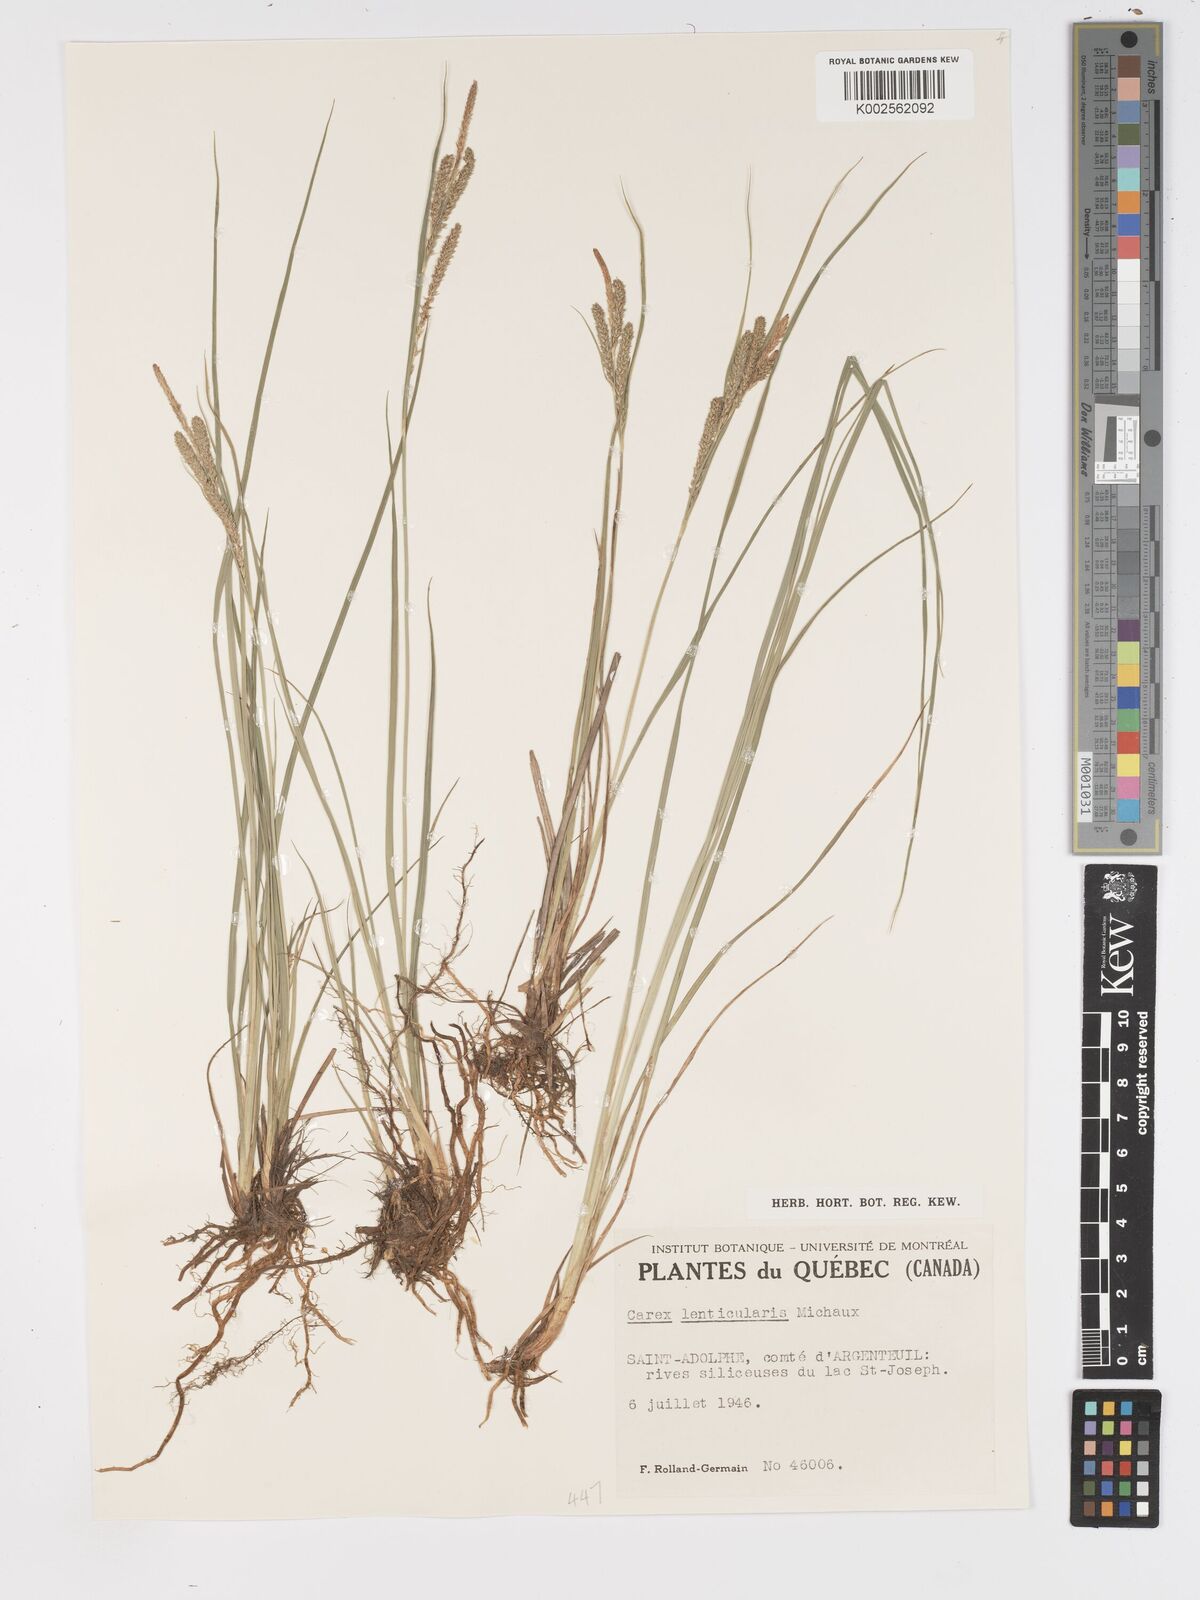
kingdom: Plantae
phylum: Tracheophyta
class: Liliopsida
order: Poales
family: Cyperaceae
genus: Carex
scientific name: Carex lenticularis
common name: Lakeshore sedge
